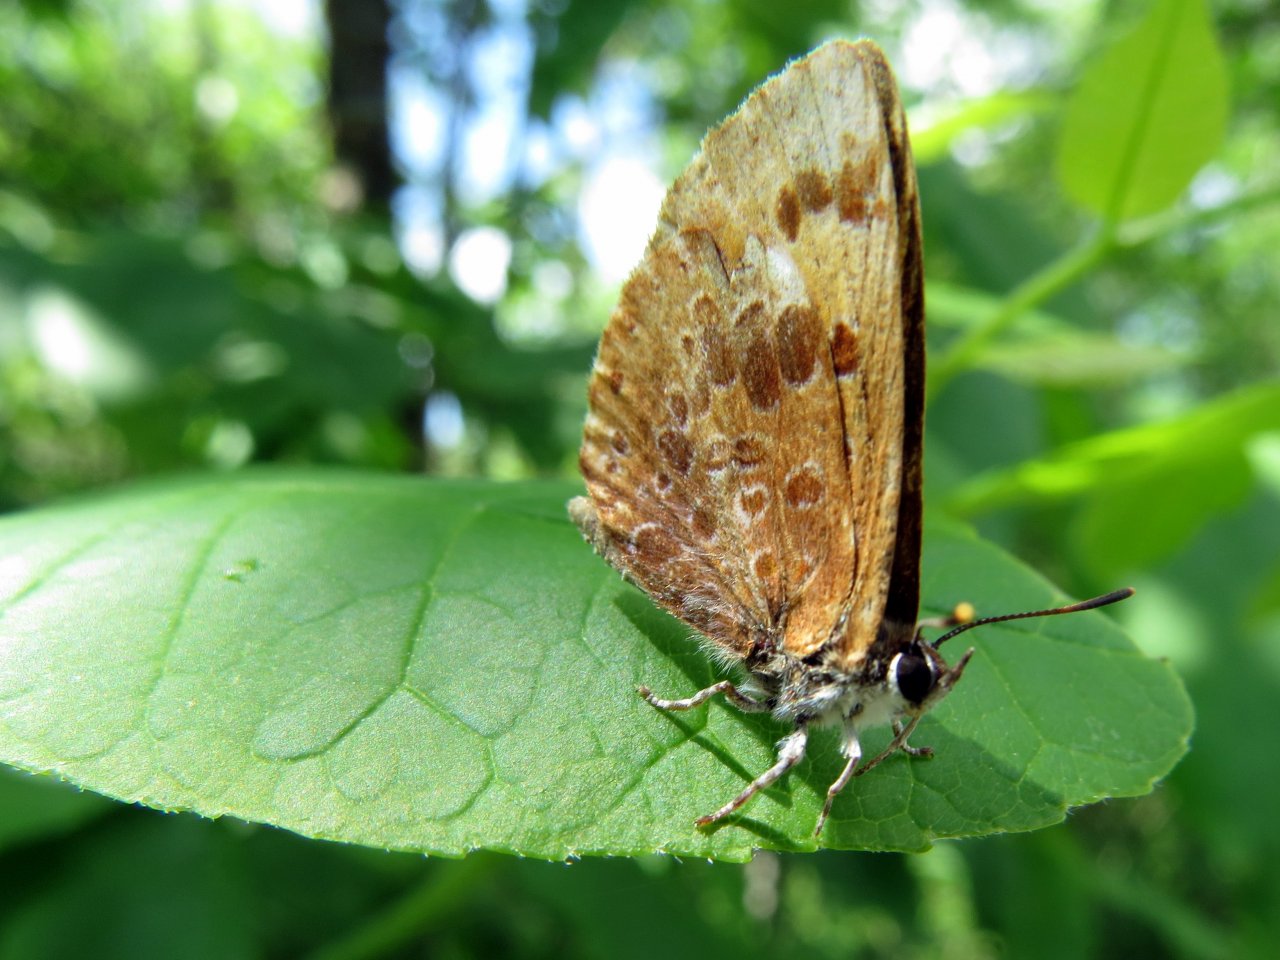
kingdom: Animalia
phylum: Arthropoda
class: Insecta
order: Lepidoptera
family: Lycaenidae
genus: Feniseca
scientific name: Feniseca tarquinius
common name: Harvester
